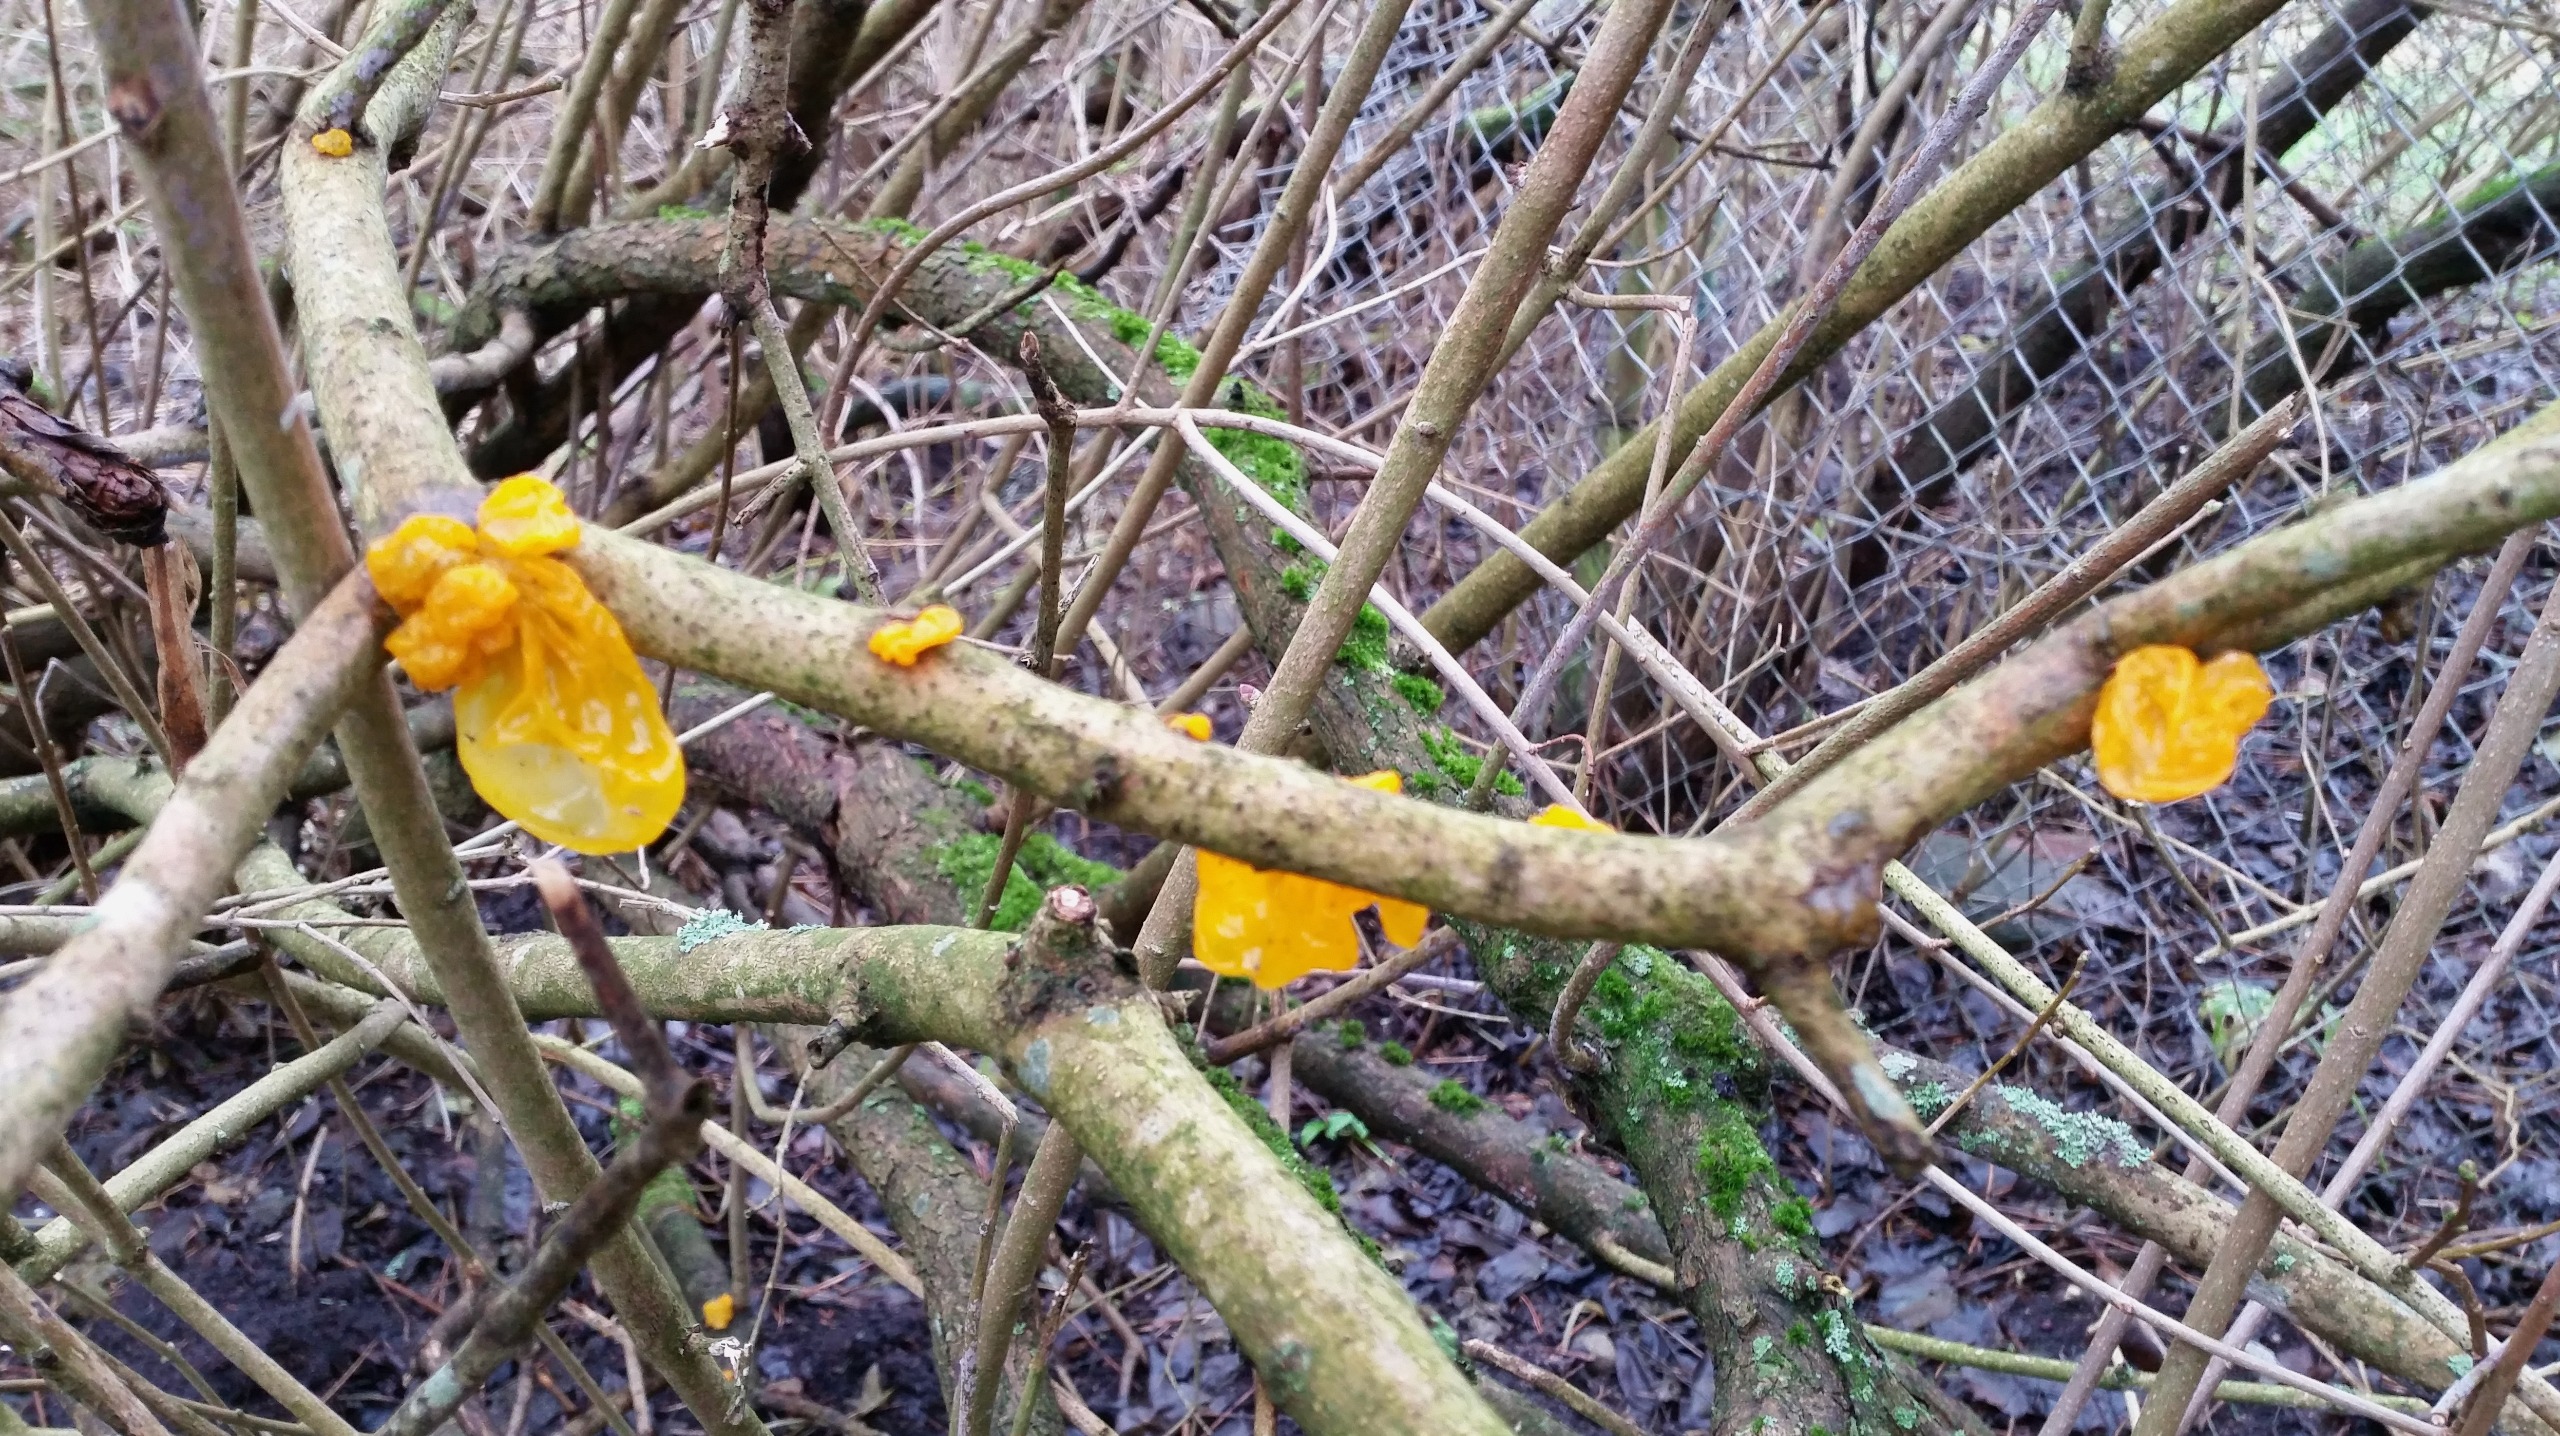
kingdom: Fungi
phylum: Basidiomycota
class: Tremellomycetes
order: Tremellales
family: Tremellaceae
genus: Tremella
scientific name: Tremella mesenterica
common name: Gul bævresvamp
